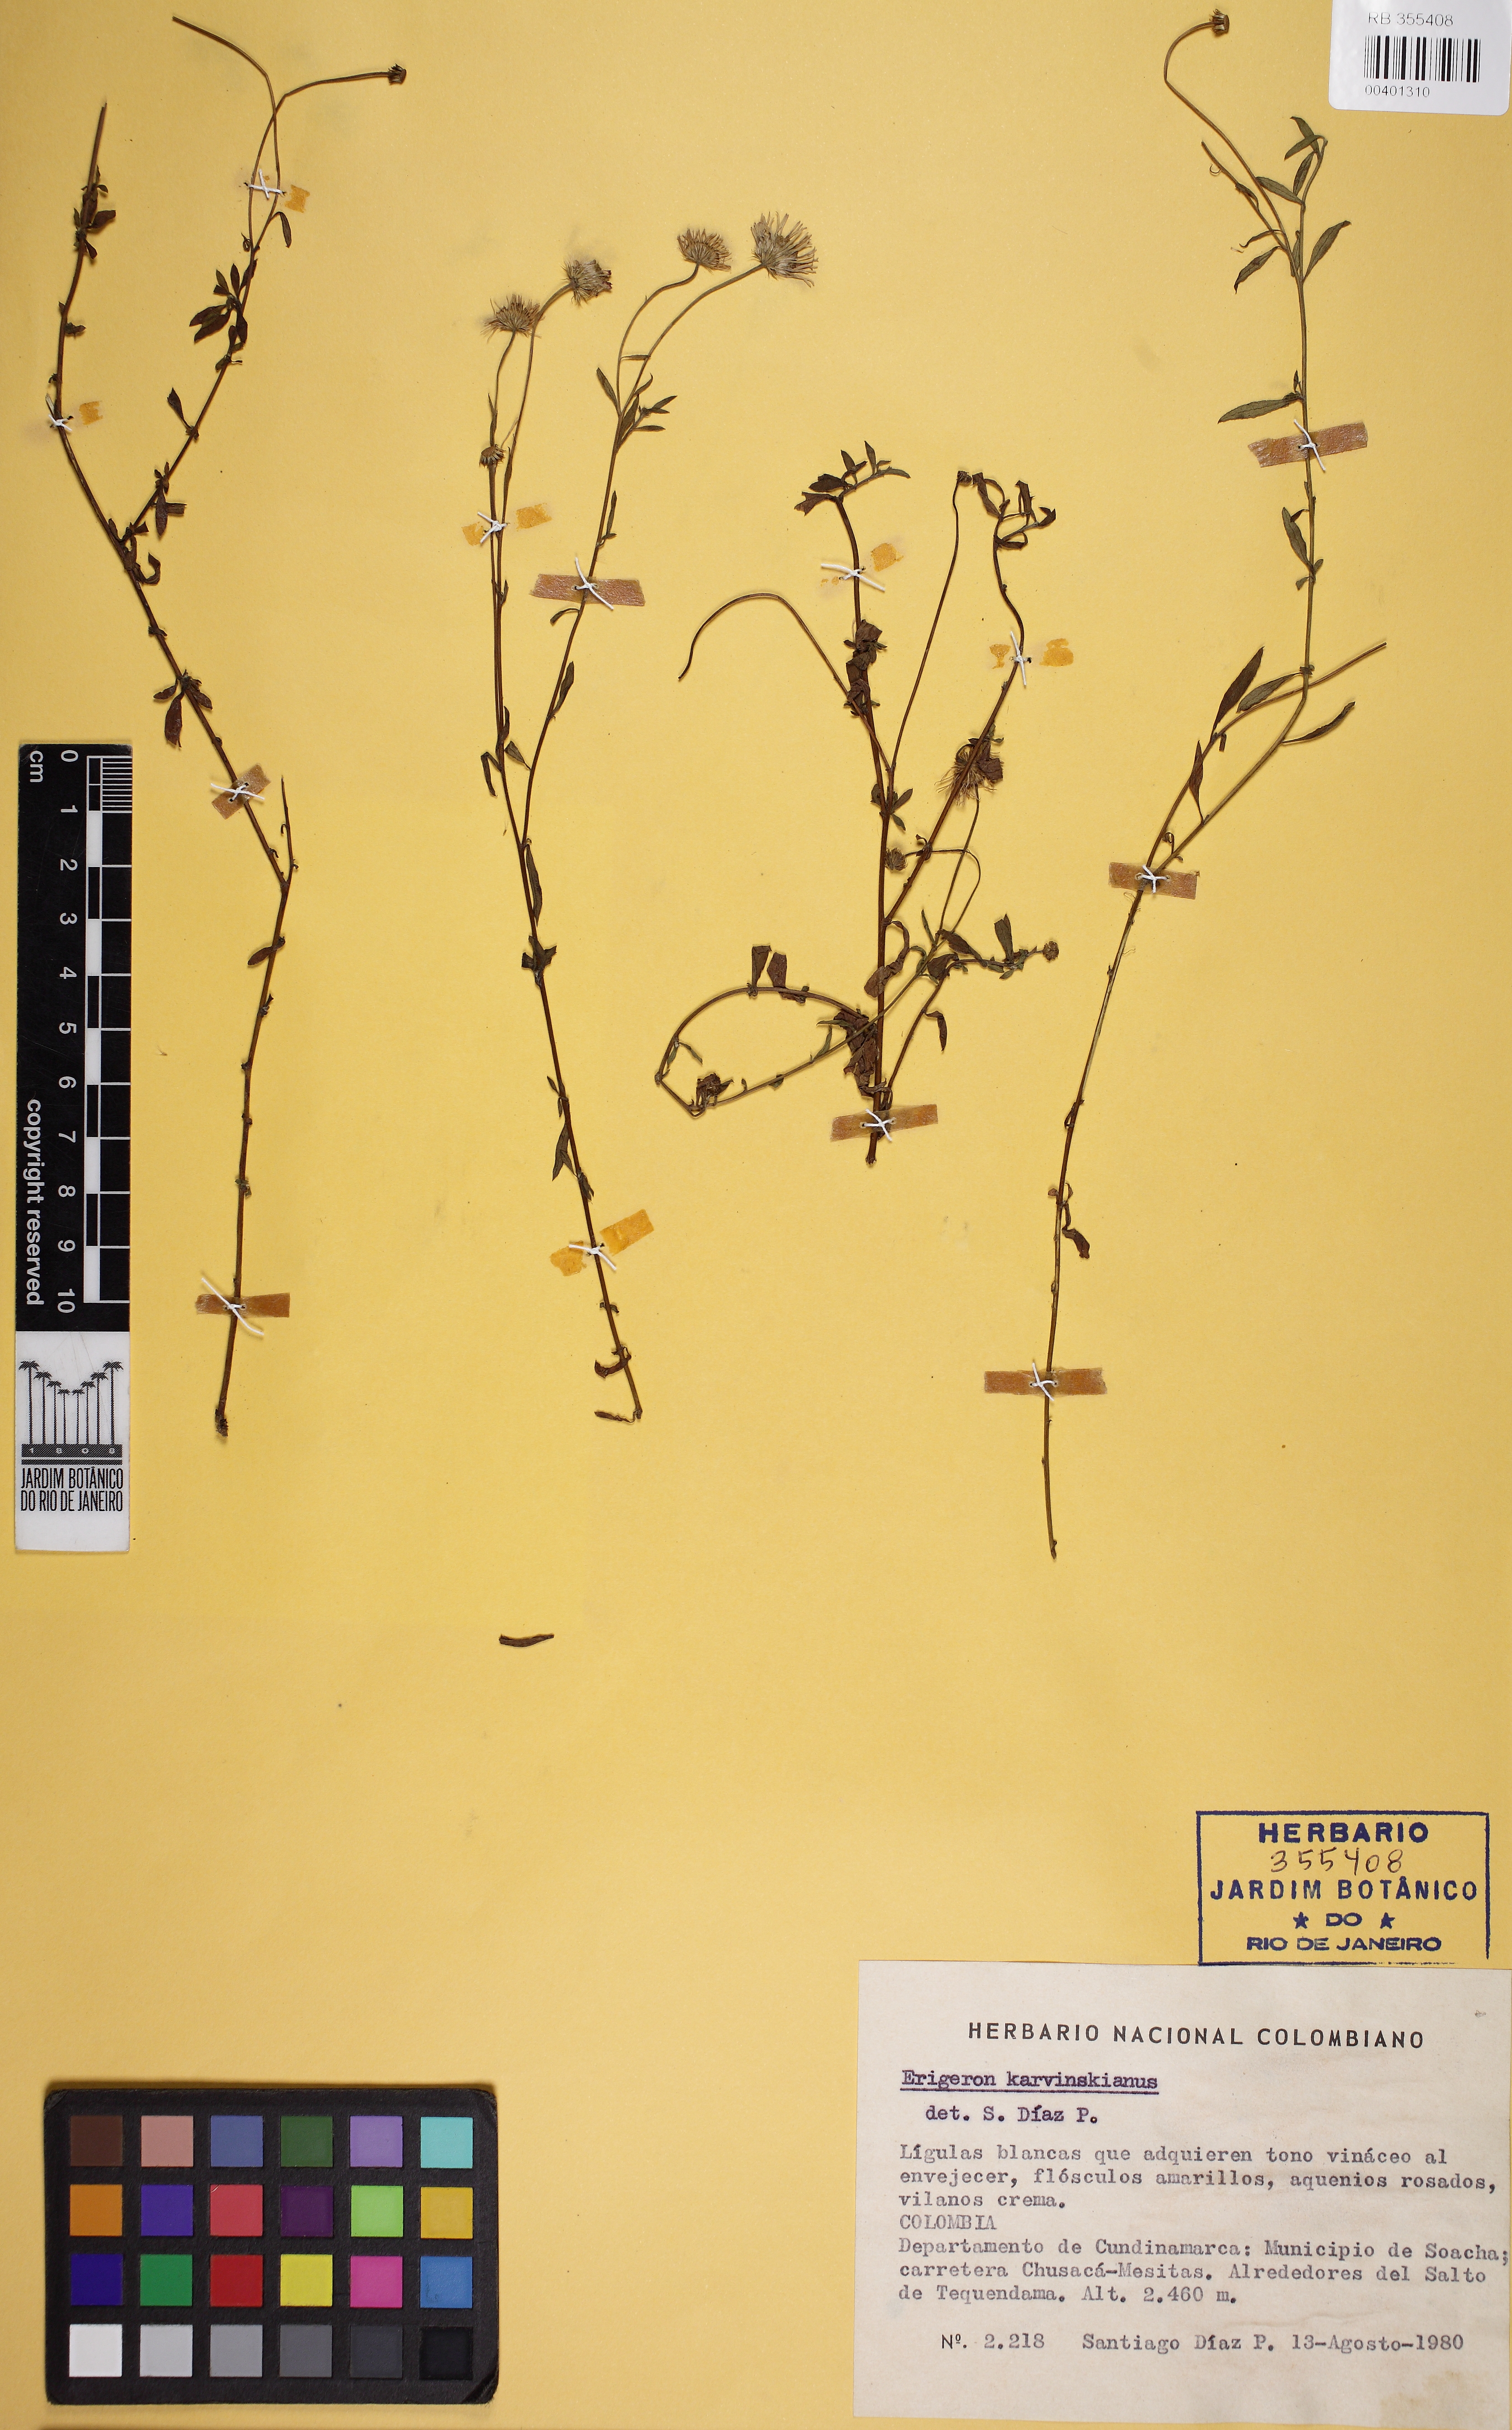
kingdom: Plantae
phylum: Tracheophyta
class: Magnoliopsida
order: Asterales
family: Asteraceae
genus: Erigeron
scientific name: Erigeron karvinskianus
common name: Mexican fleabane
